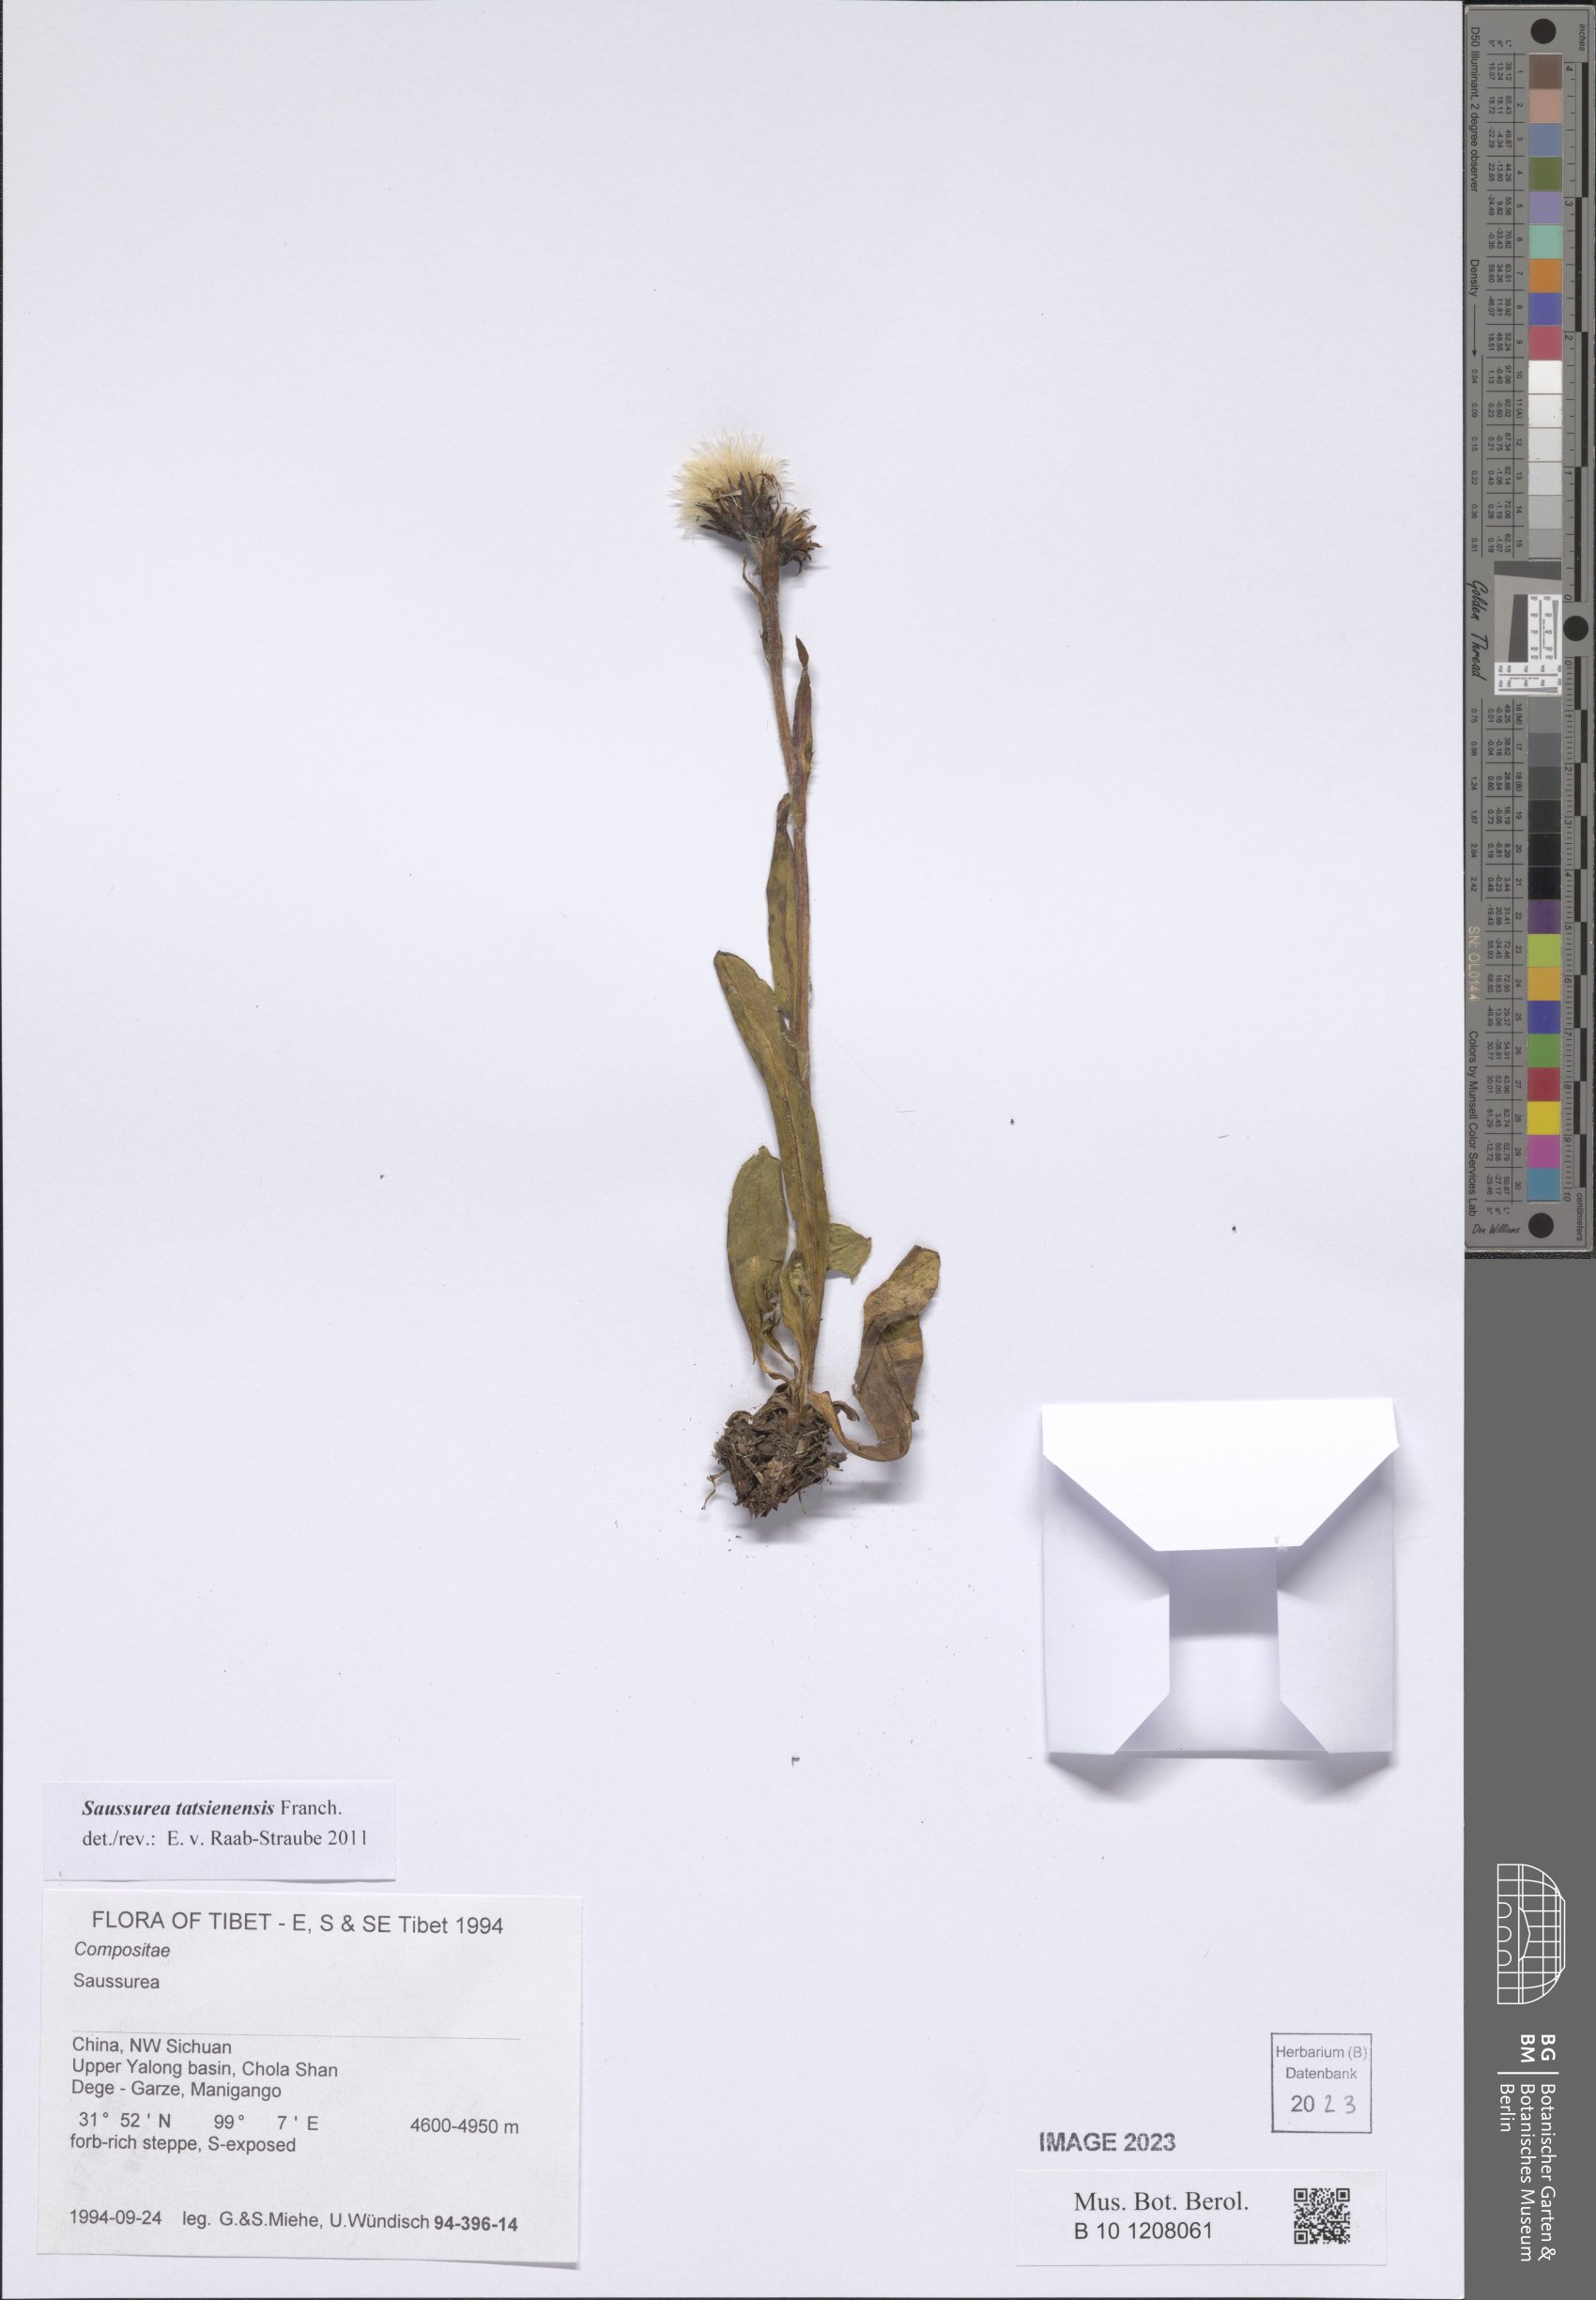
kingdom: Plantae
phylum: Tracheophyta
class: Magnoliopsida
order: Asterales
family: Asteraceae
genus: Saussurea
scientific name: Saussurea tatsienensis
